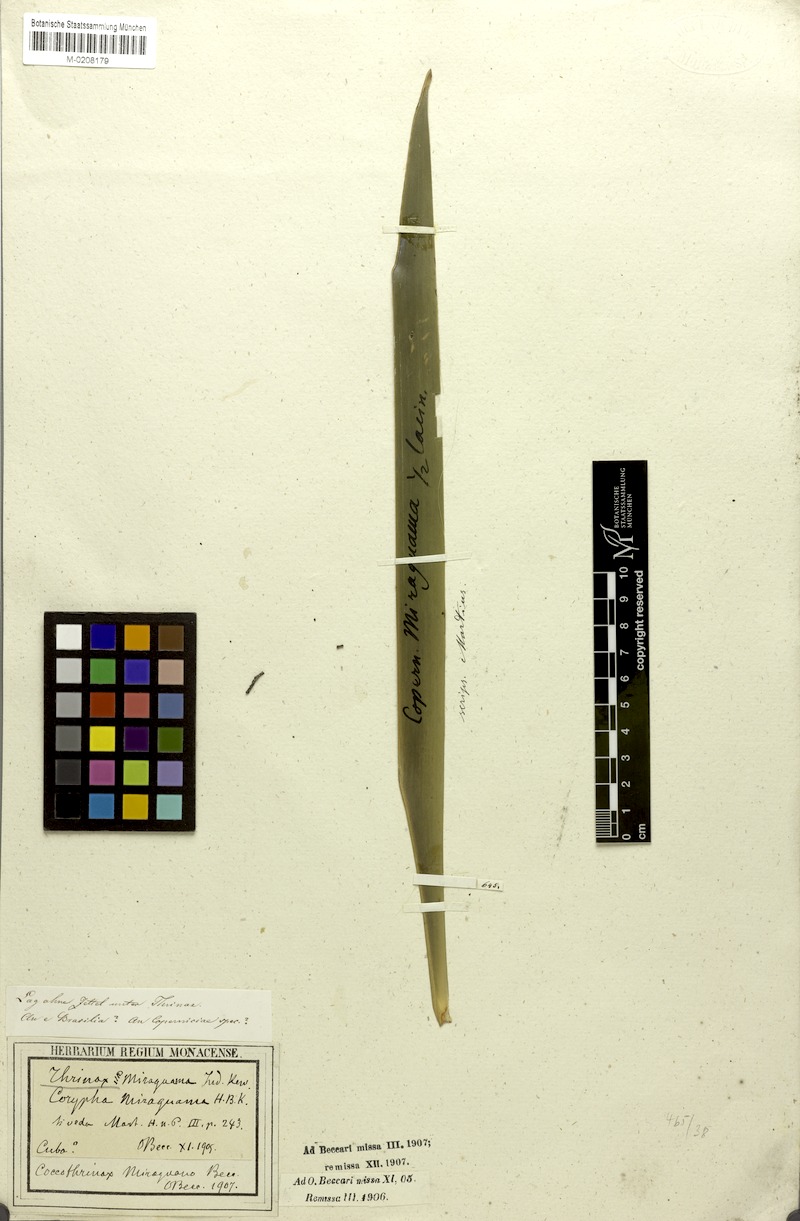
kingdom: Plantae
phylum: Tracheophyta
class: Liliopsida
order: Arecales
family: Arecaceae
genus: Coccothrinax
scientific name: Coccothrinax miraguama
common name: Miragua palm
